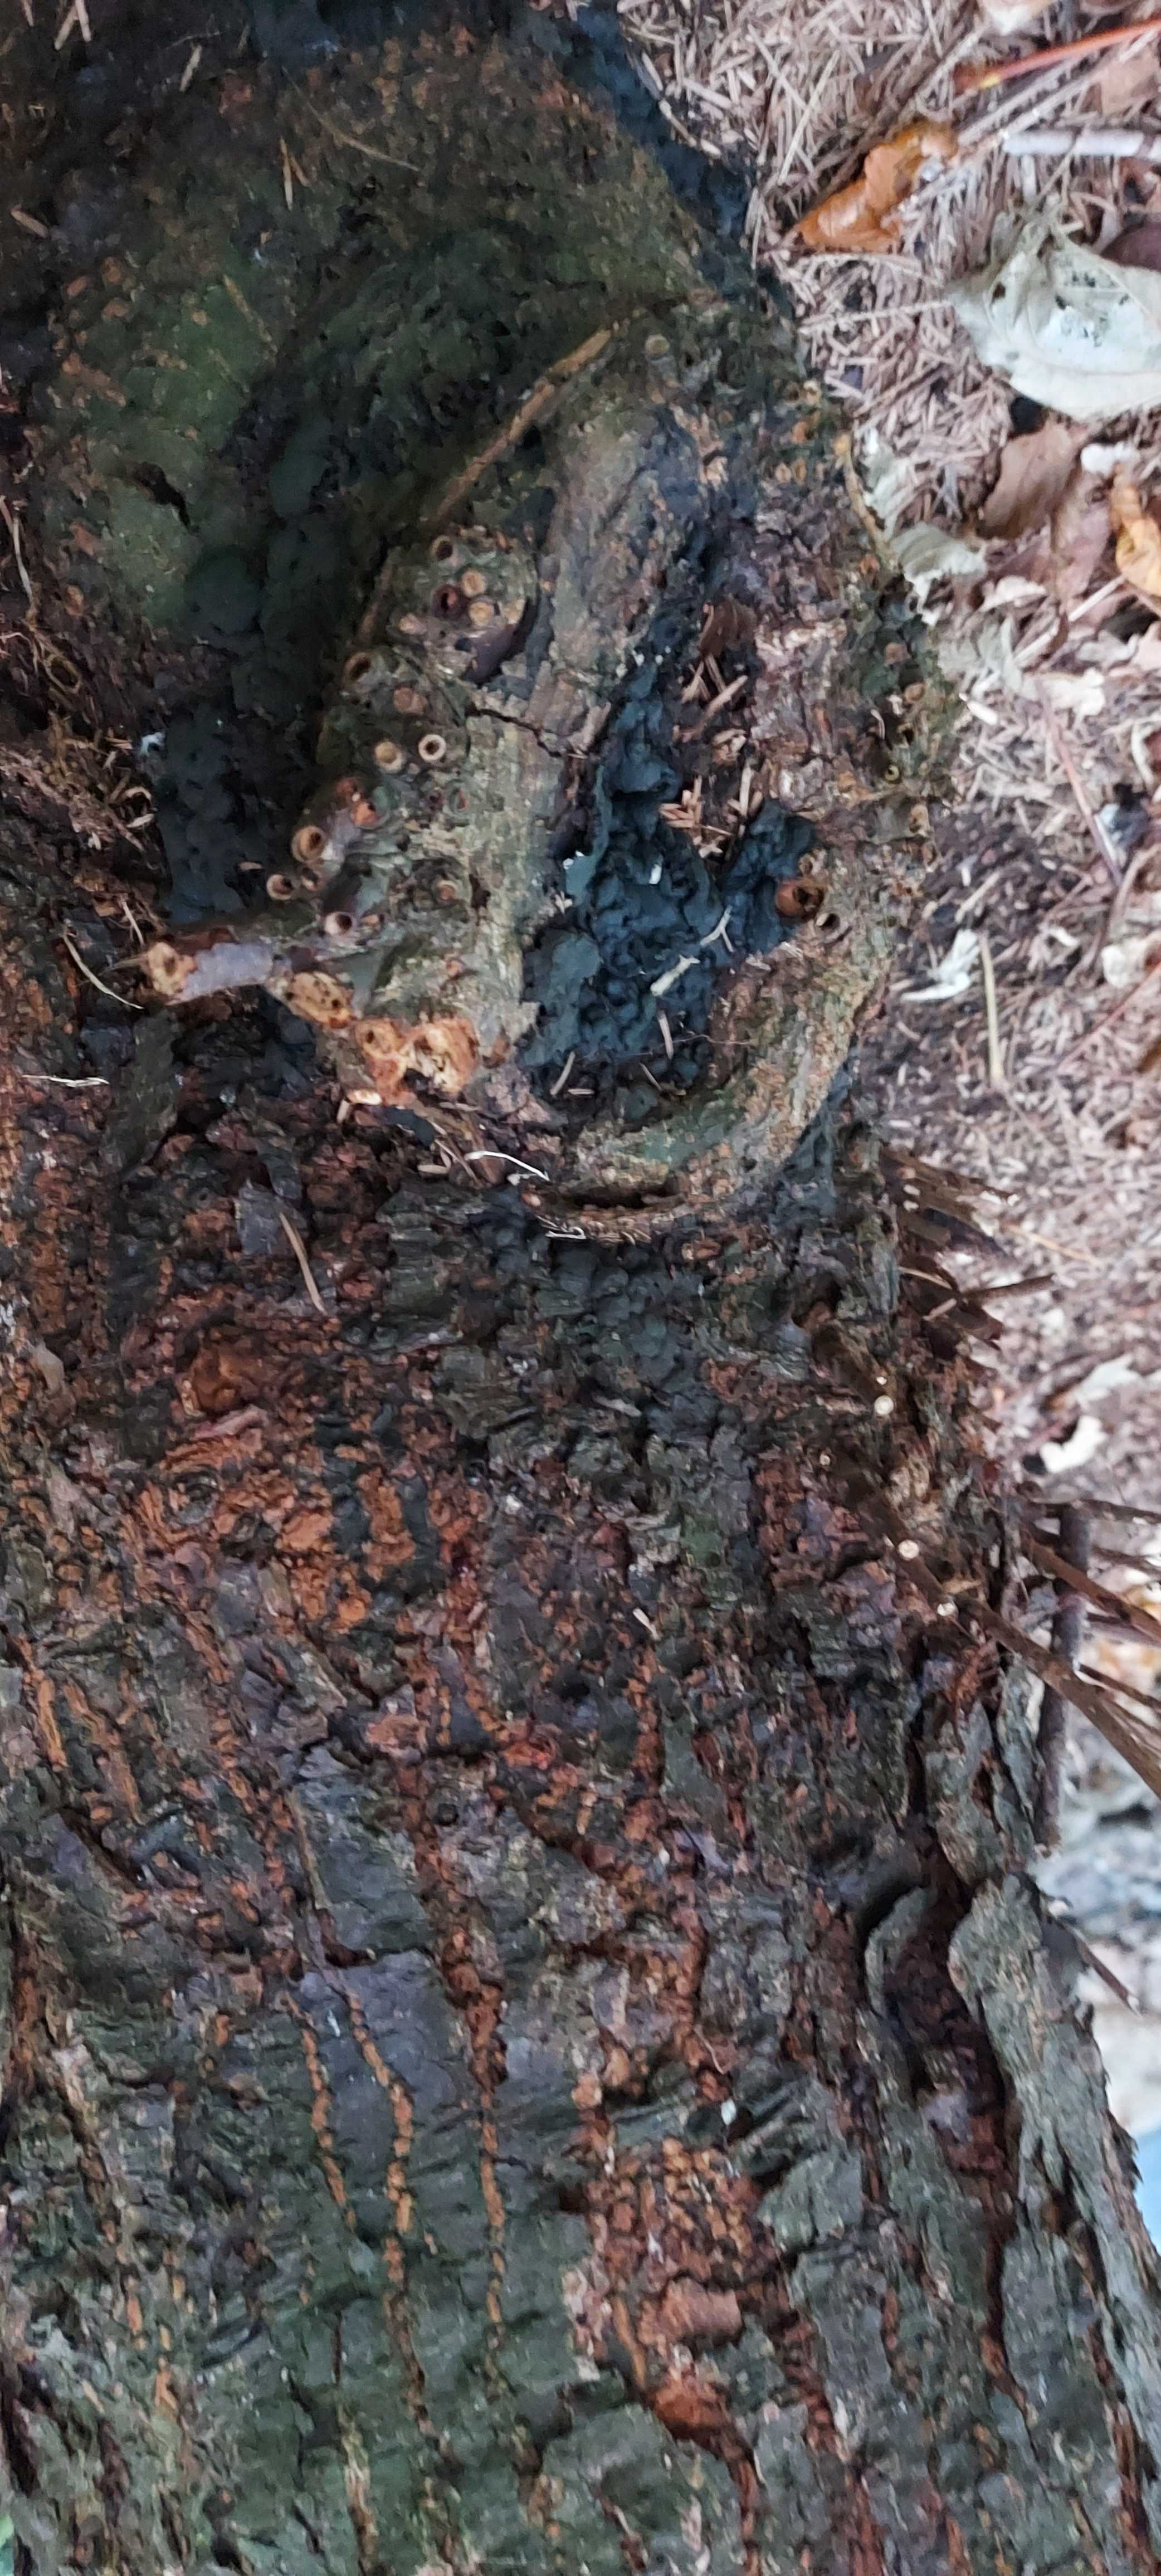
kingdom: Fungi
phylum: Ascomycota
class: Sordariomycetes
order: Xylariales
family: Xylariaceae
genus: Kretzschmaria
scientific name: Kretzschmaria deusta
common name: stor kulsvamp
